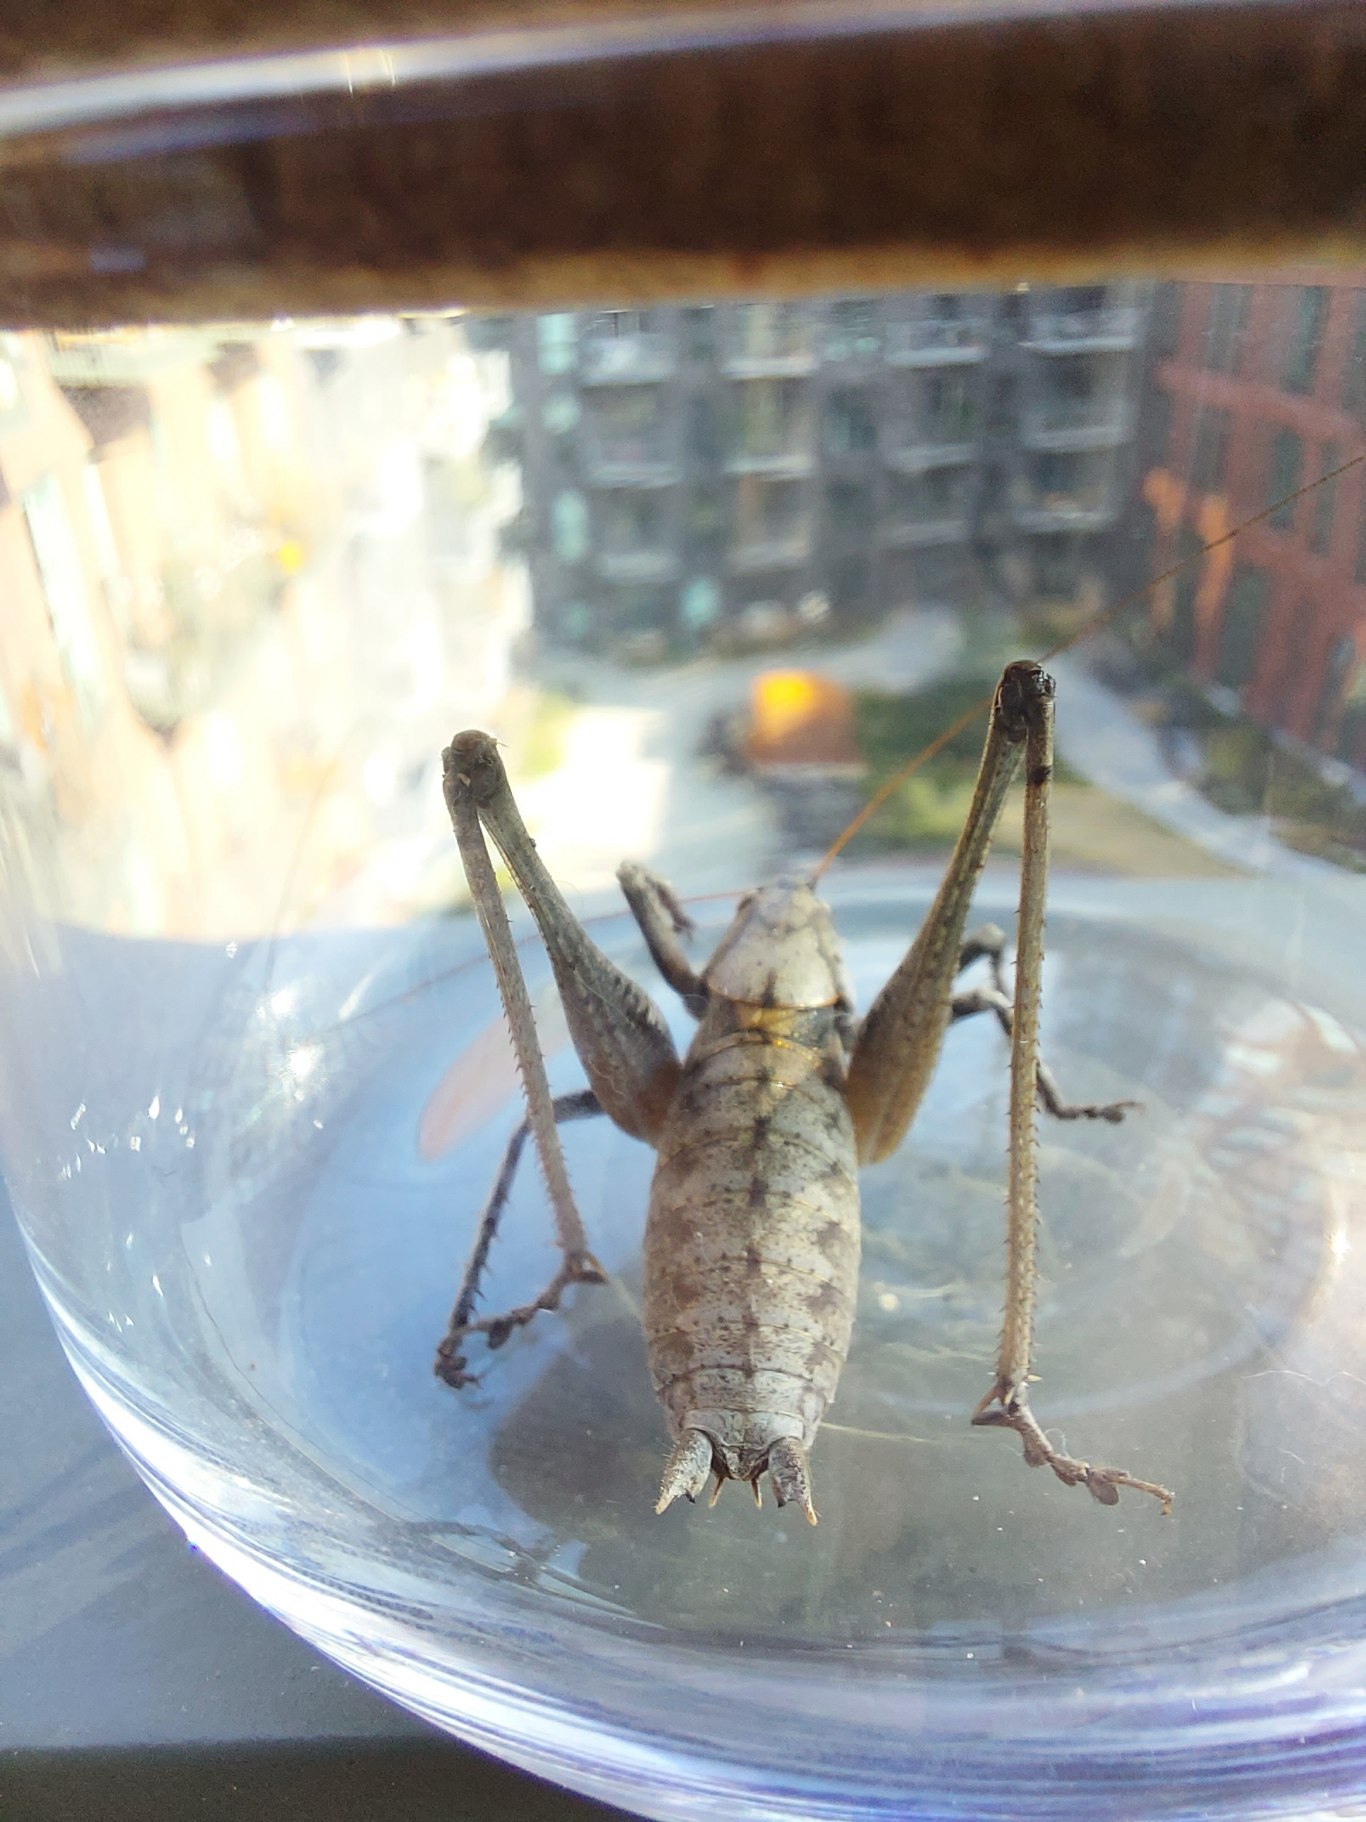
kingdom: Animalia
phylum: Arthropoda
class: Insecta
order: Orthoptera
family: Tettigoniidae
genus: Pholidoptera
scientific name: Pholidoptera griseoaptera
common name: Buskgræshoppe
